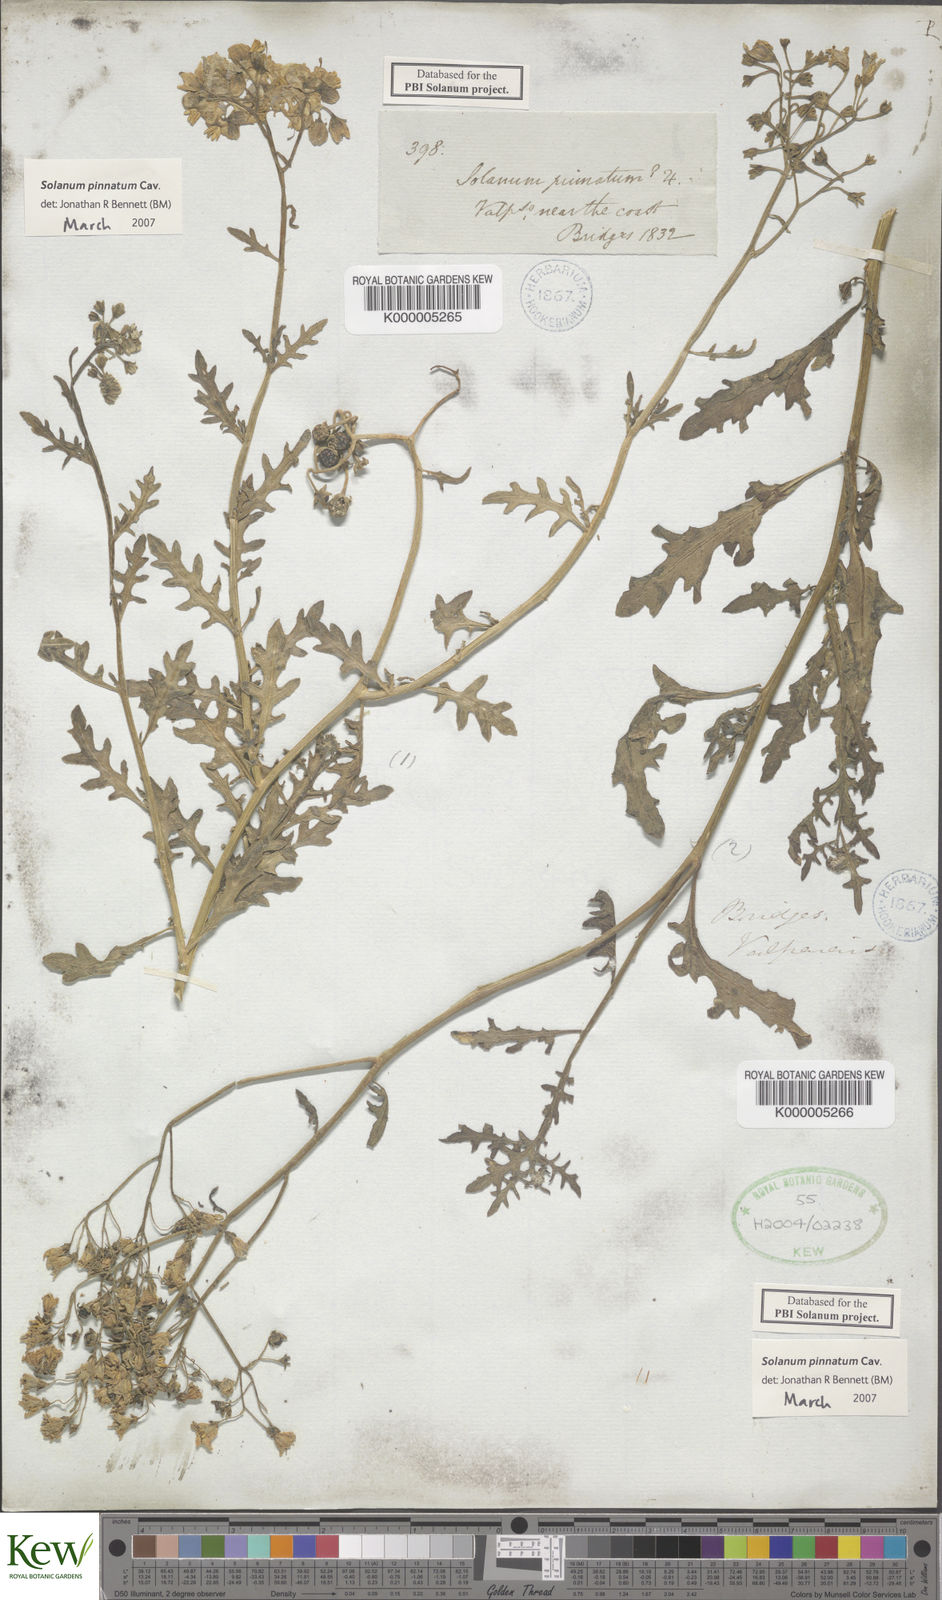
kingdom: Plantae
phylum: Tracheophyta
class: Magnoliopsida
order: Solanales
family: Solanaceae
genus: Solanum
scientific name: Solanum pinnatum
